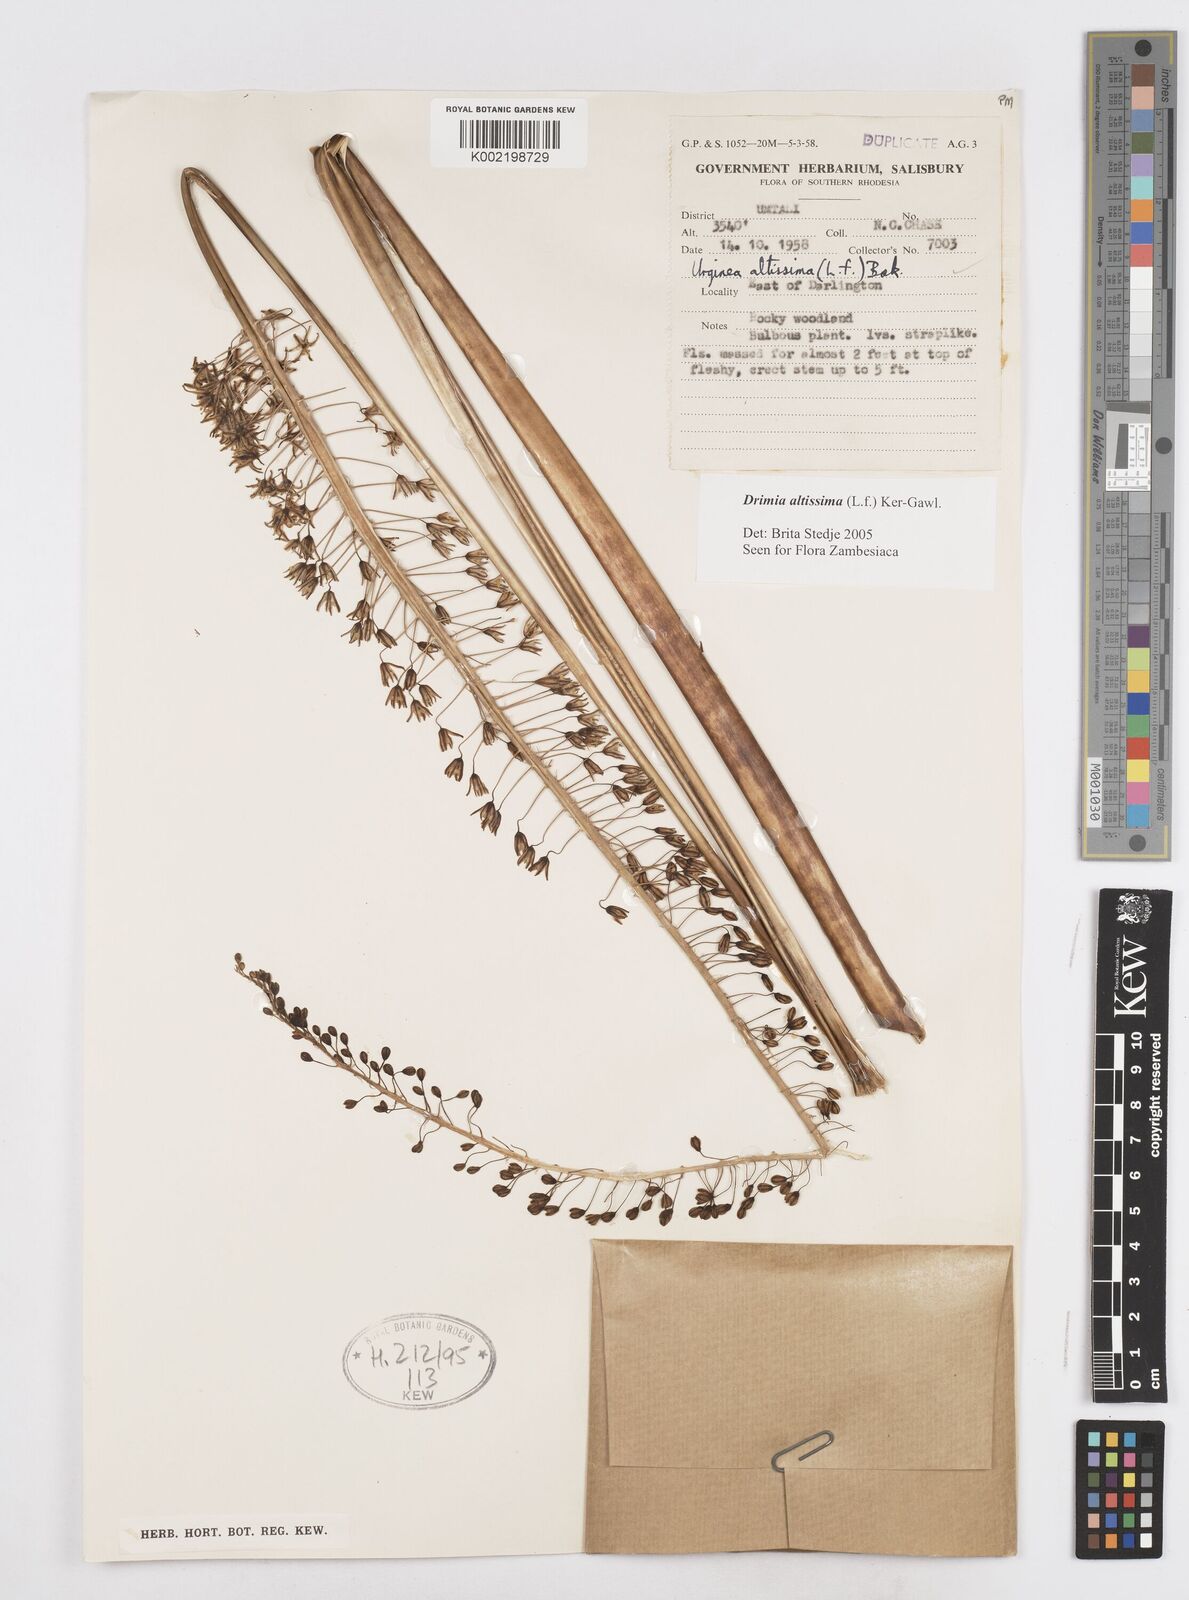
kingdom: Plantae
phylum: Tracheophyta
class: Liliopsida
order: Asparagales
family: Asparagaceae
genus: Drimia
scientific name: Drimia
